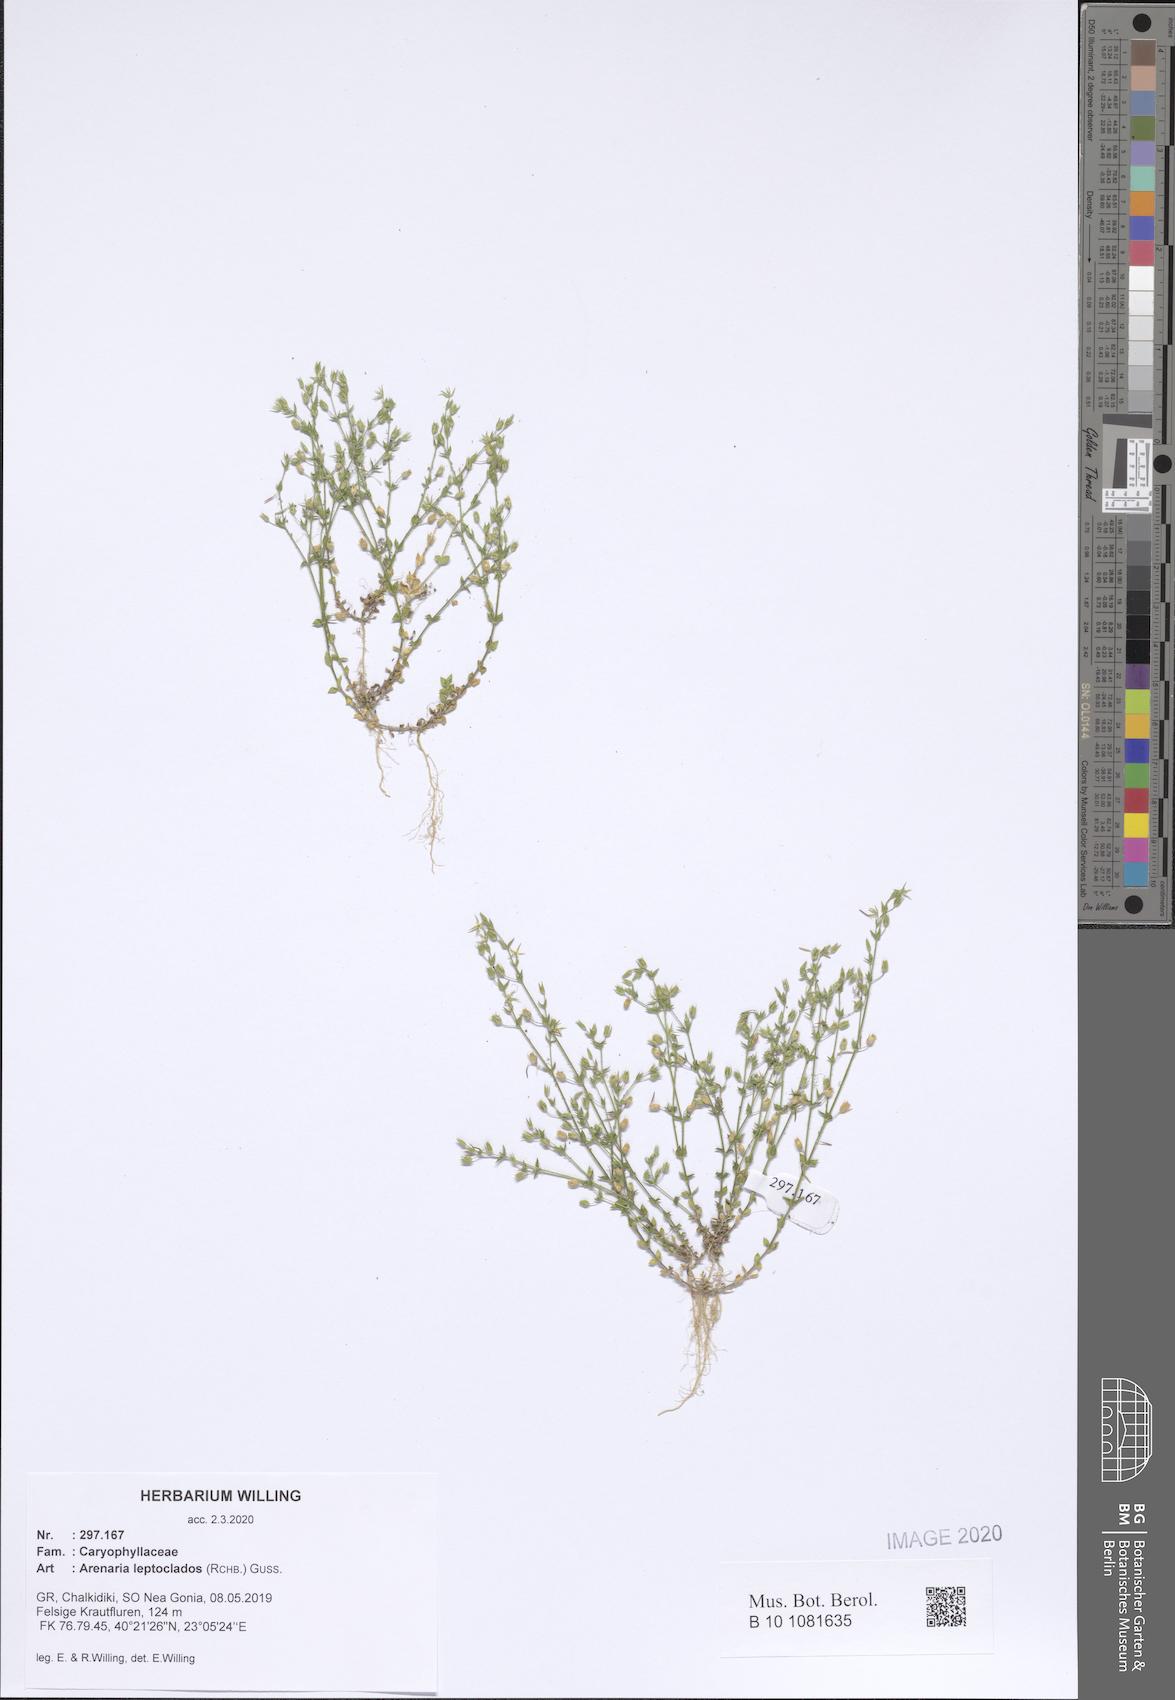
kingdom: Plantae
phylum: Tracheophyta
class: Magnoliopsida
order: Caryophyllales
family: Caryophyllaceae
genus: Arenaria
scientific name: Arenaria leptoclados
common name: Thyme-leaved sandwort
